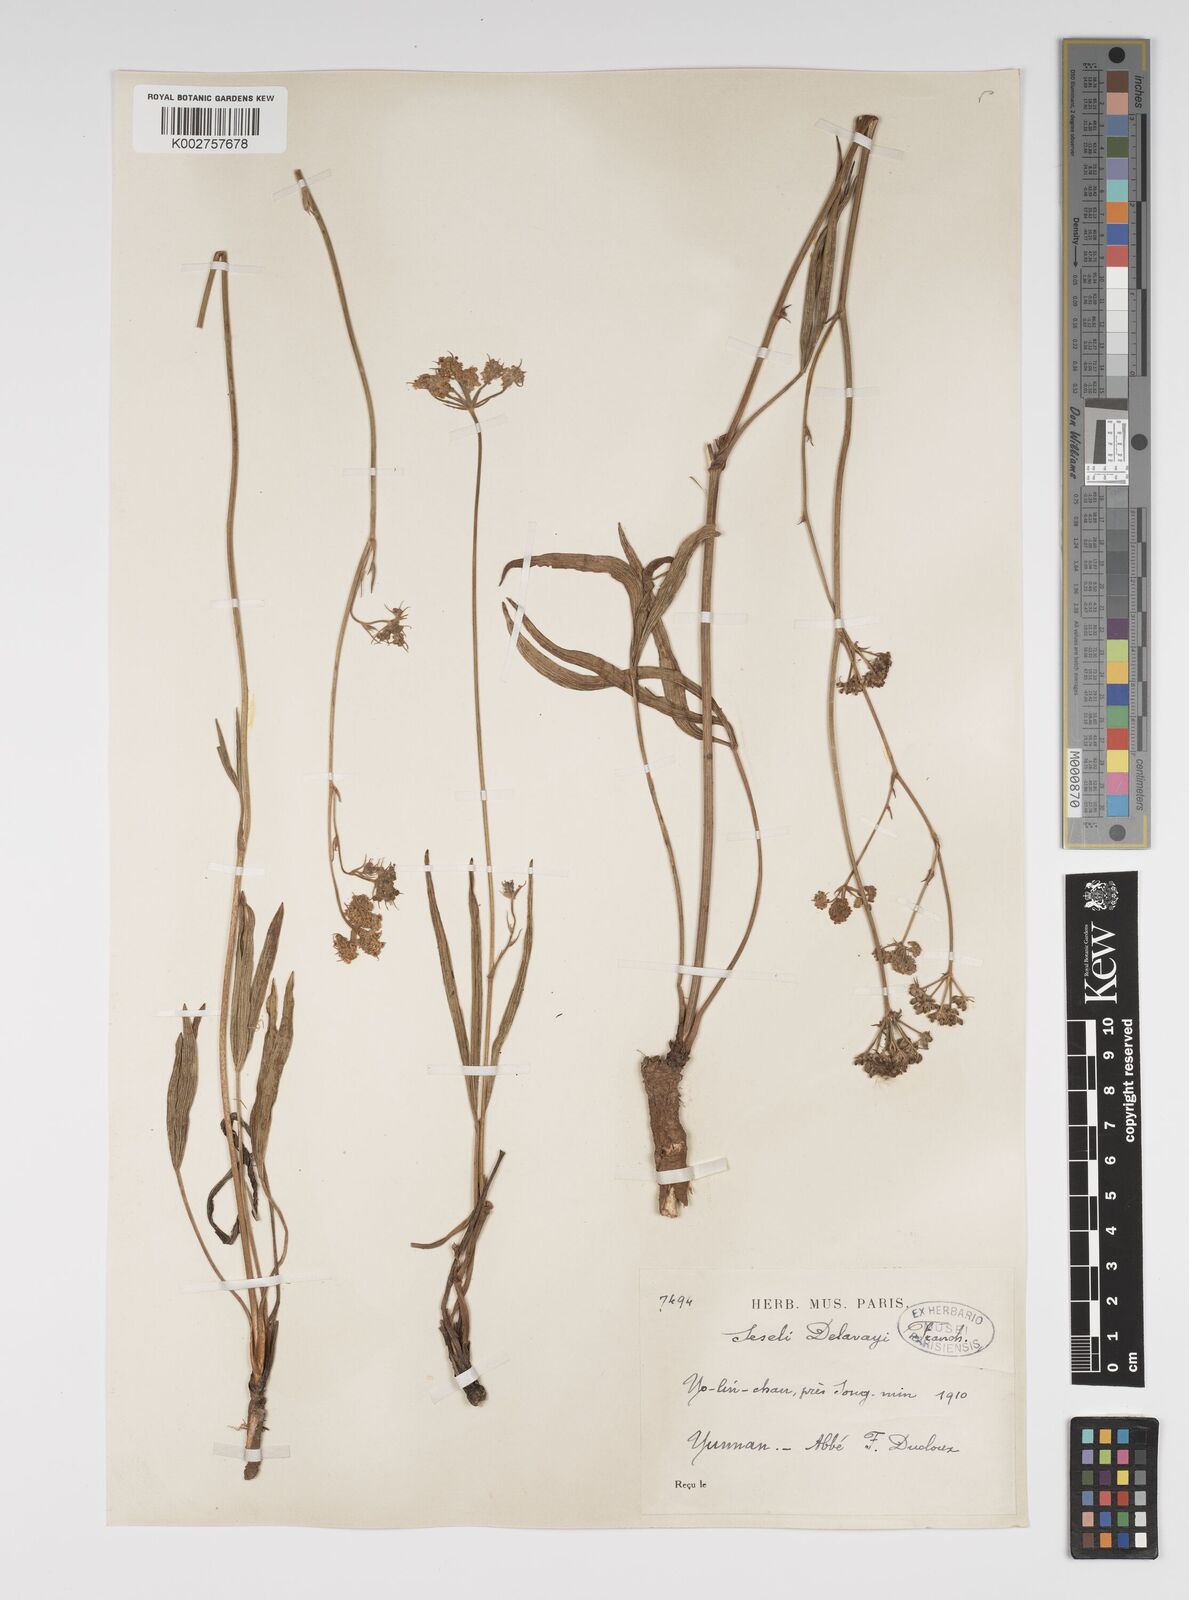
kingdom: Plantae
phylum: Tracheophyta
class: Magnoliopsida
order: Apiales
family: Apiaceae
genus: Seseli
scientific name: Seseli delavayi
